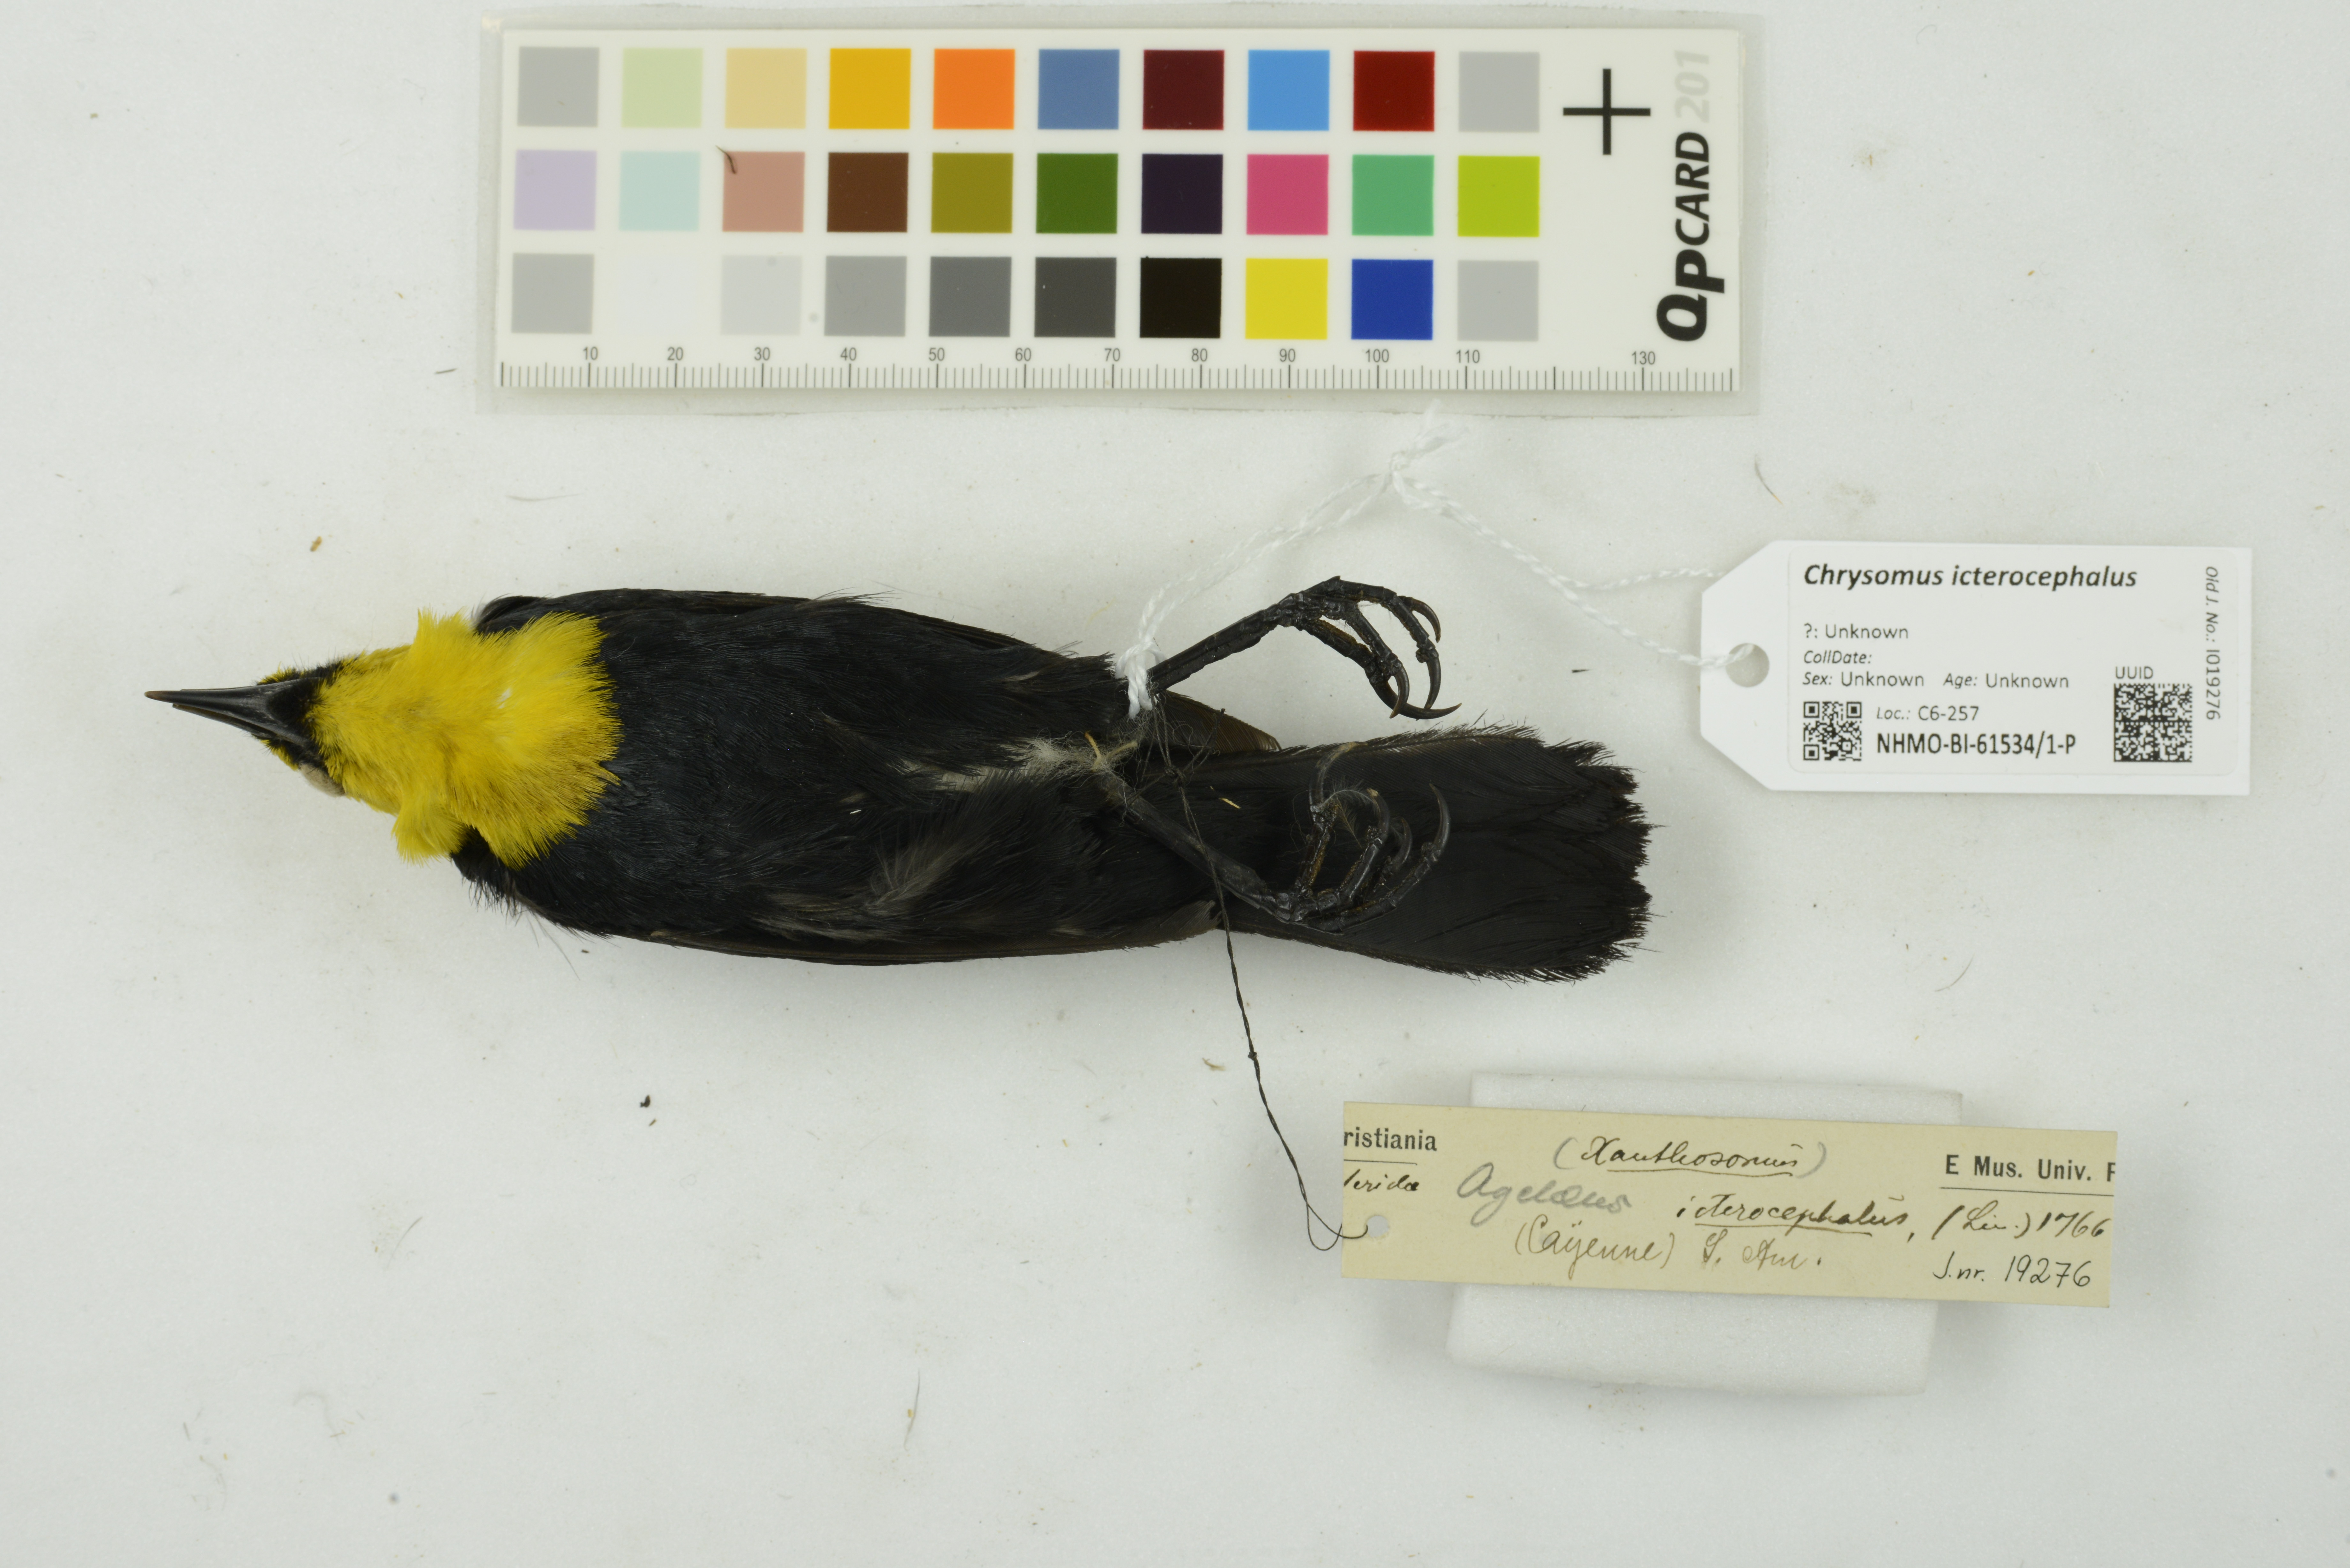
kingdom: Animalia
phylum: Chordata
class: Aves
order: Passeriformes
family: Icteridae
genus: Chrysomus
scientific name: Chrysomus icterocephalus
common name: Yellow-hooded blackbird
